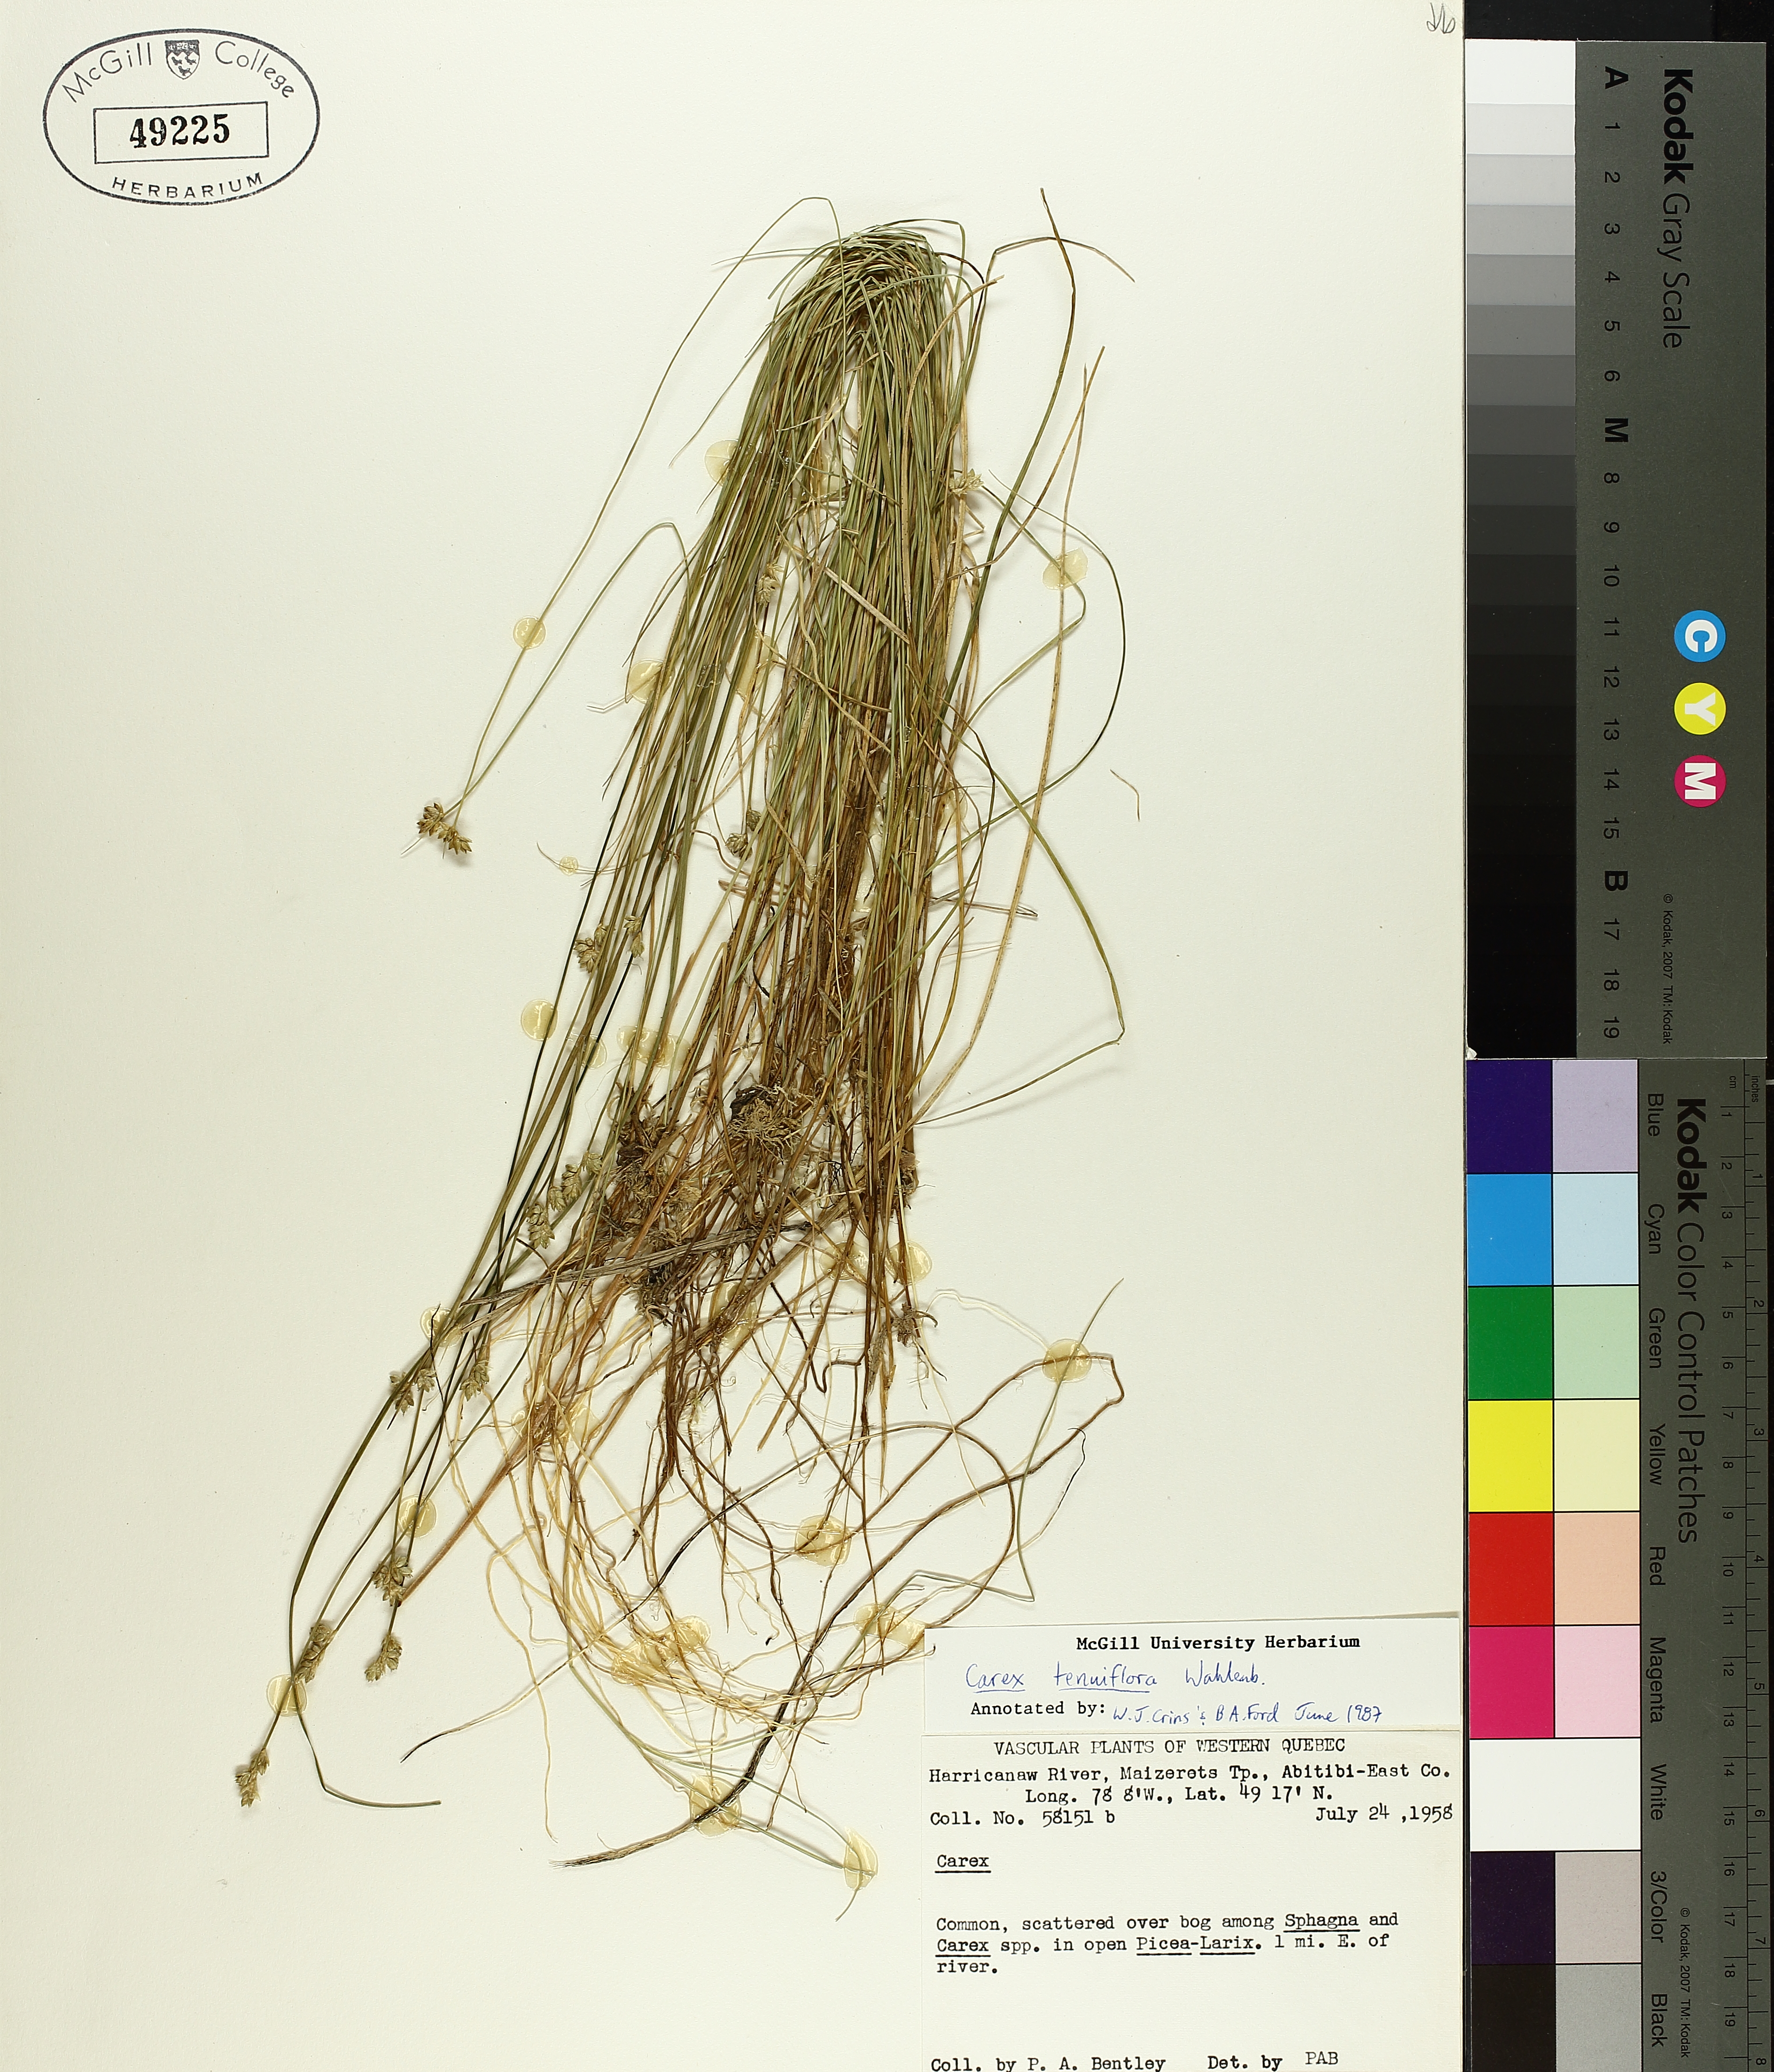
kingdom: Plantae
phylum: Tracheophyta
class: Liliopsida
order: Poales
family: Cyperaceae
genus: Carex
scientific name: Carex tenuiflora
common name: Sparse-flowered sedge
